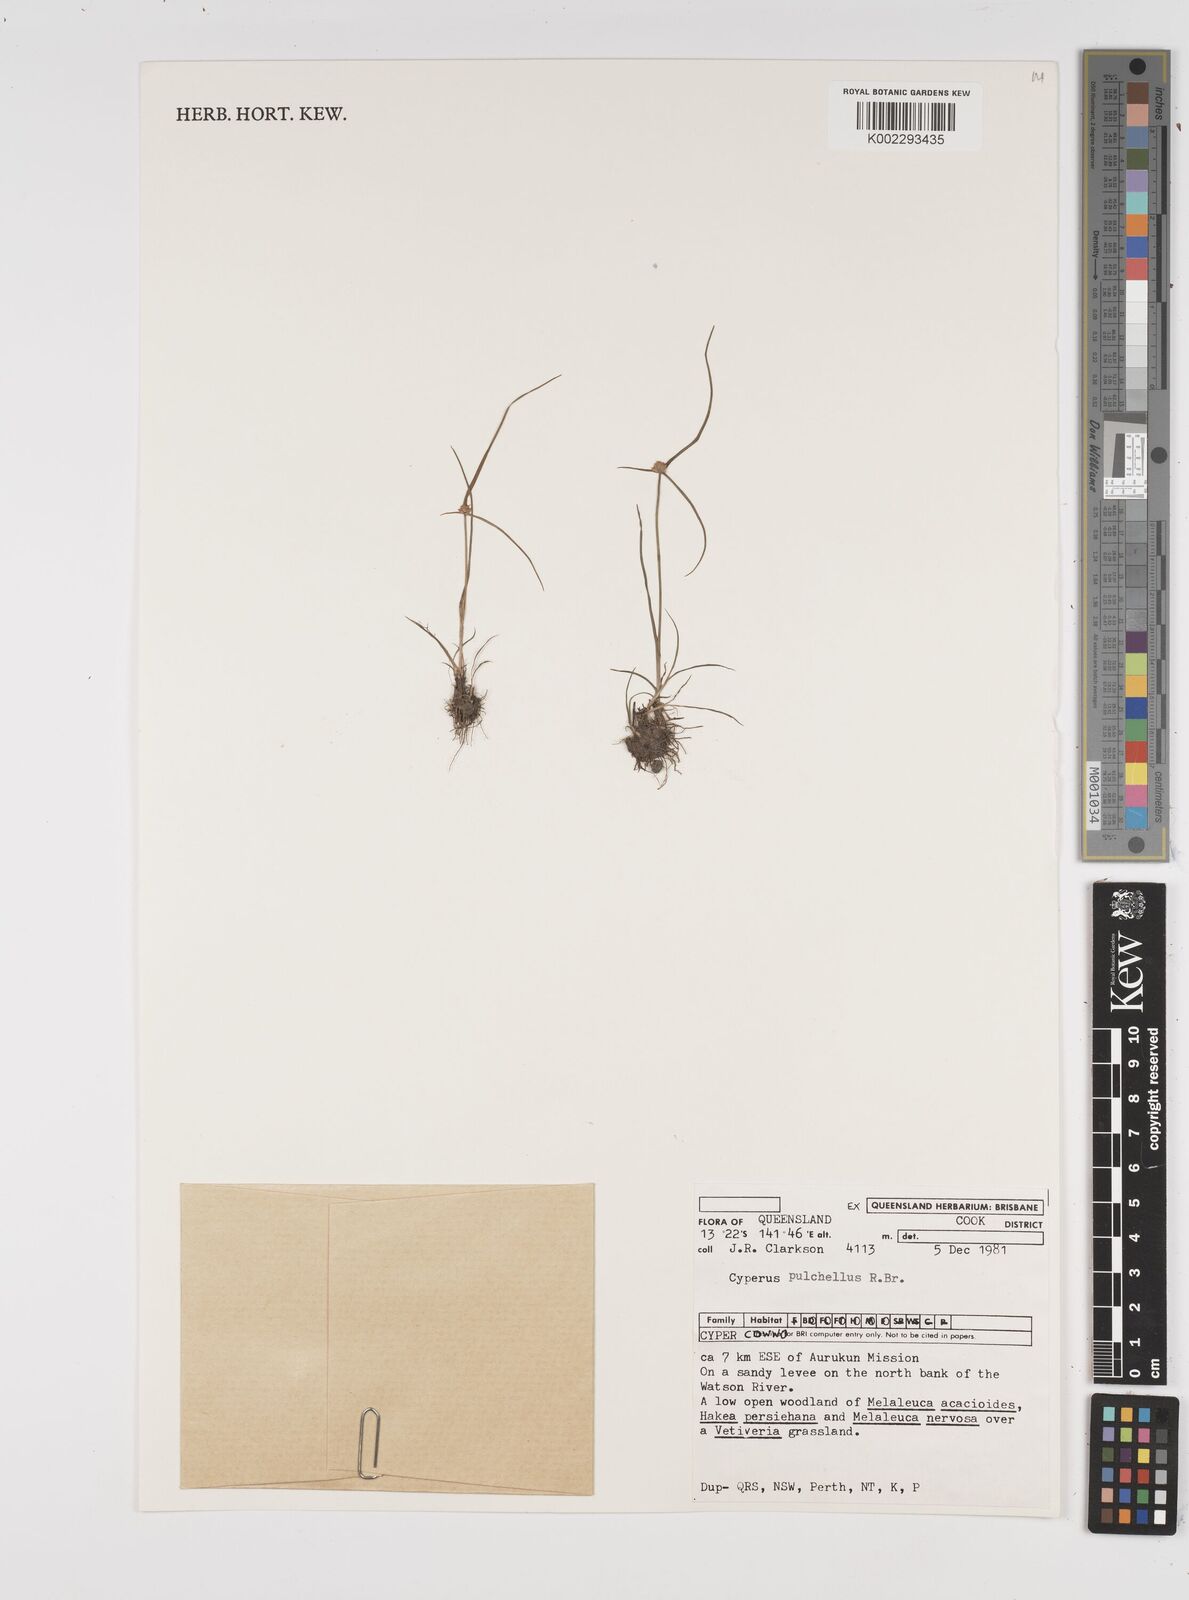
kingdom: Plantae
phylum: Tracheophyta
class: Liliopsida
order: Poales
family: Cyperaceae
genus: Cyperus
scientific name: Cyperus pulchellus
